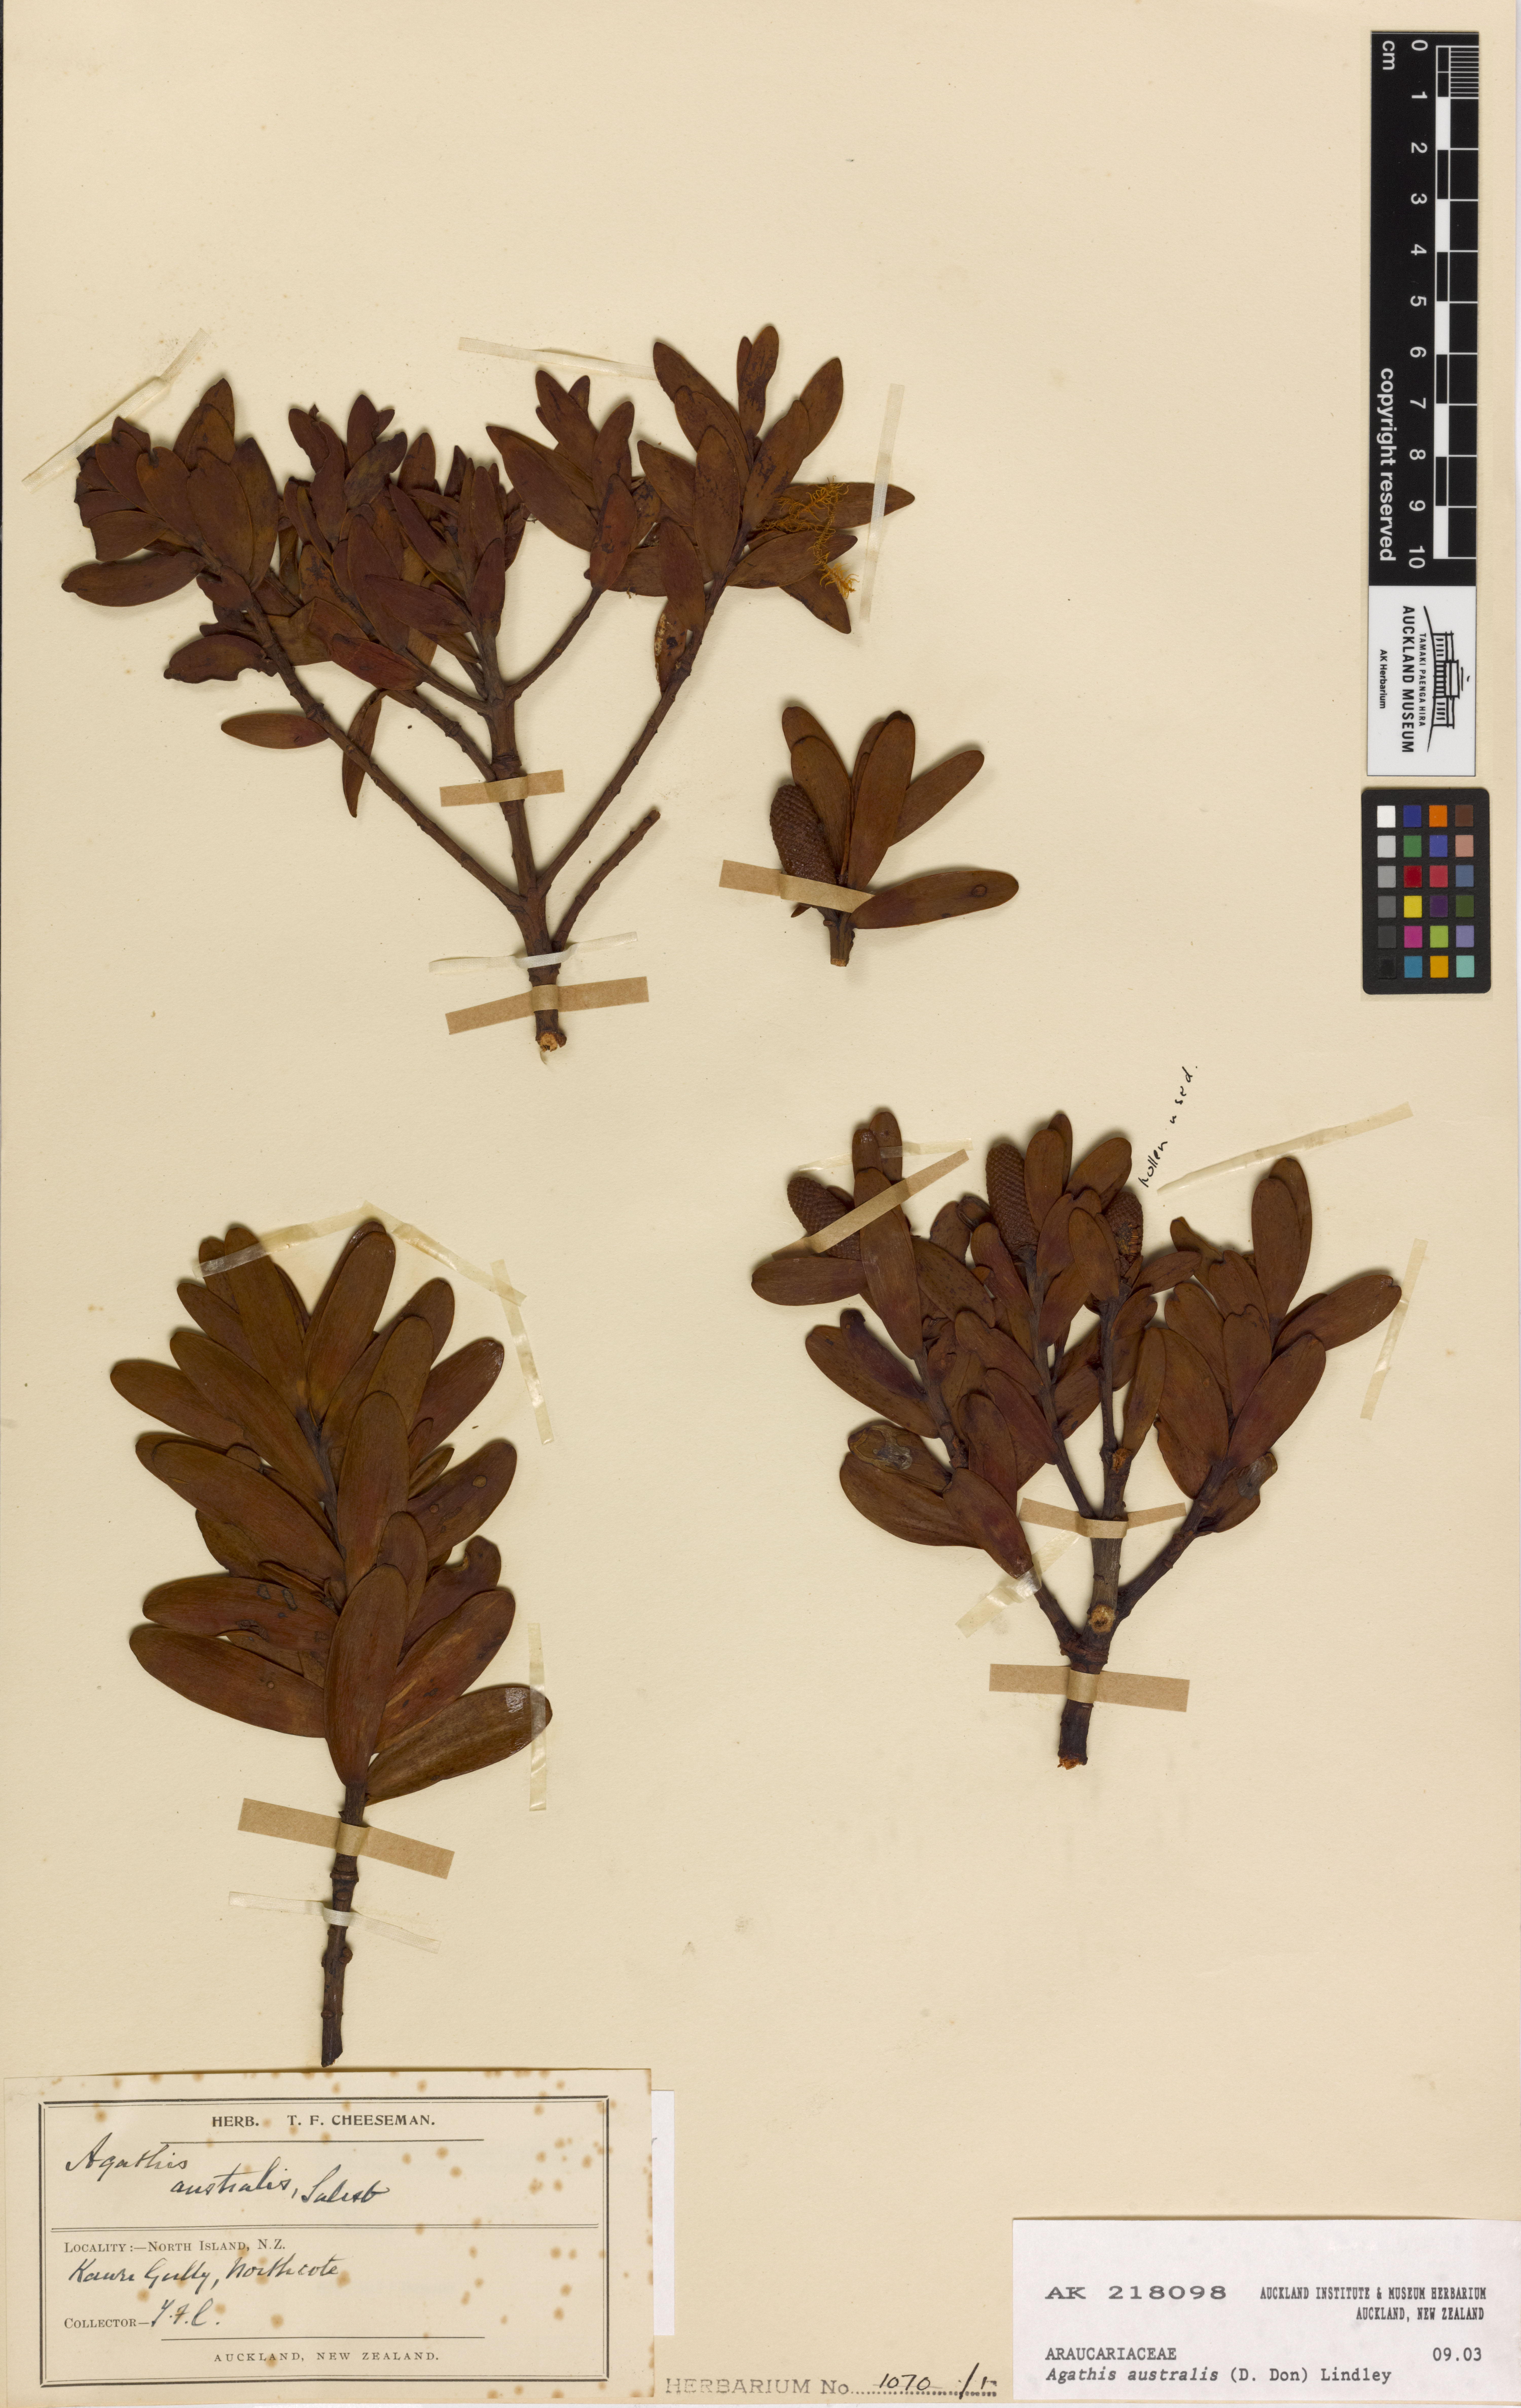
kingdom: Plantae
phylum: Tracheophyta
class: Pinopsida
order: Pinales
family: Araucariaceae
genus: Agathis
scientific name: Agathis australis
